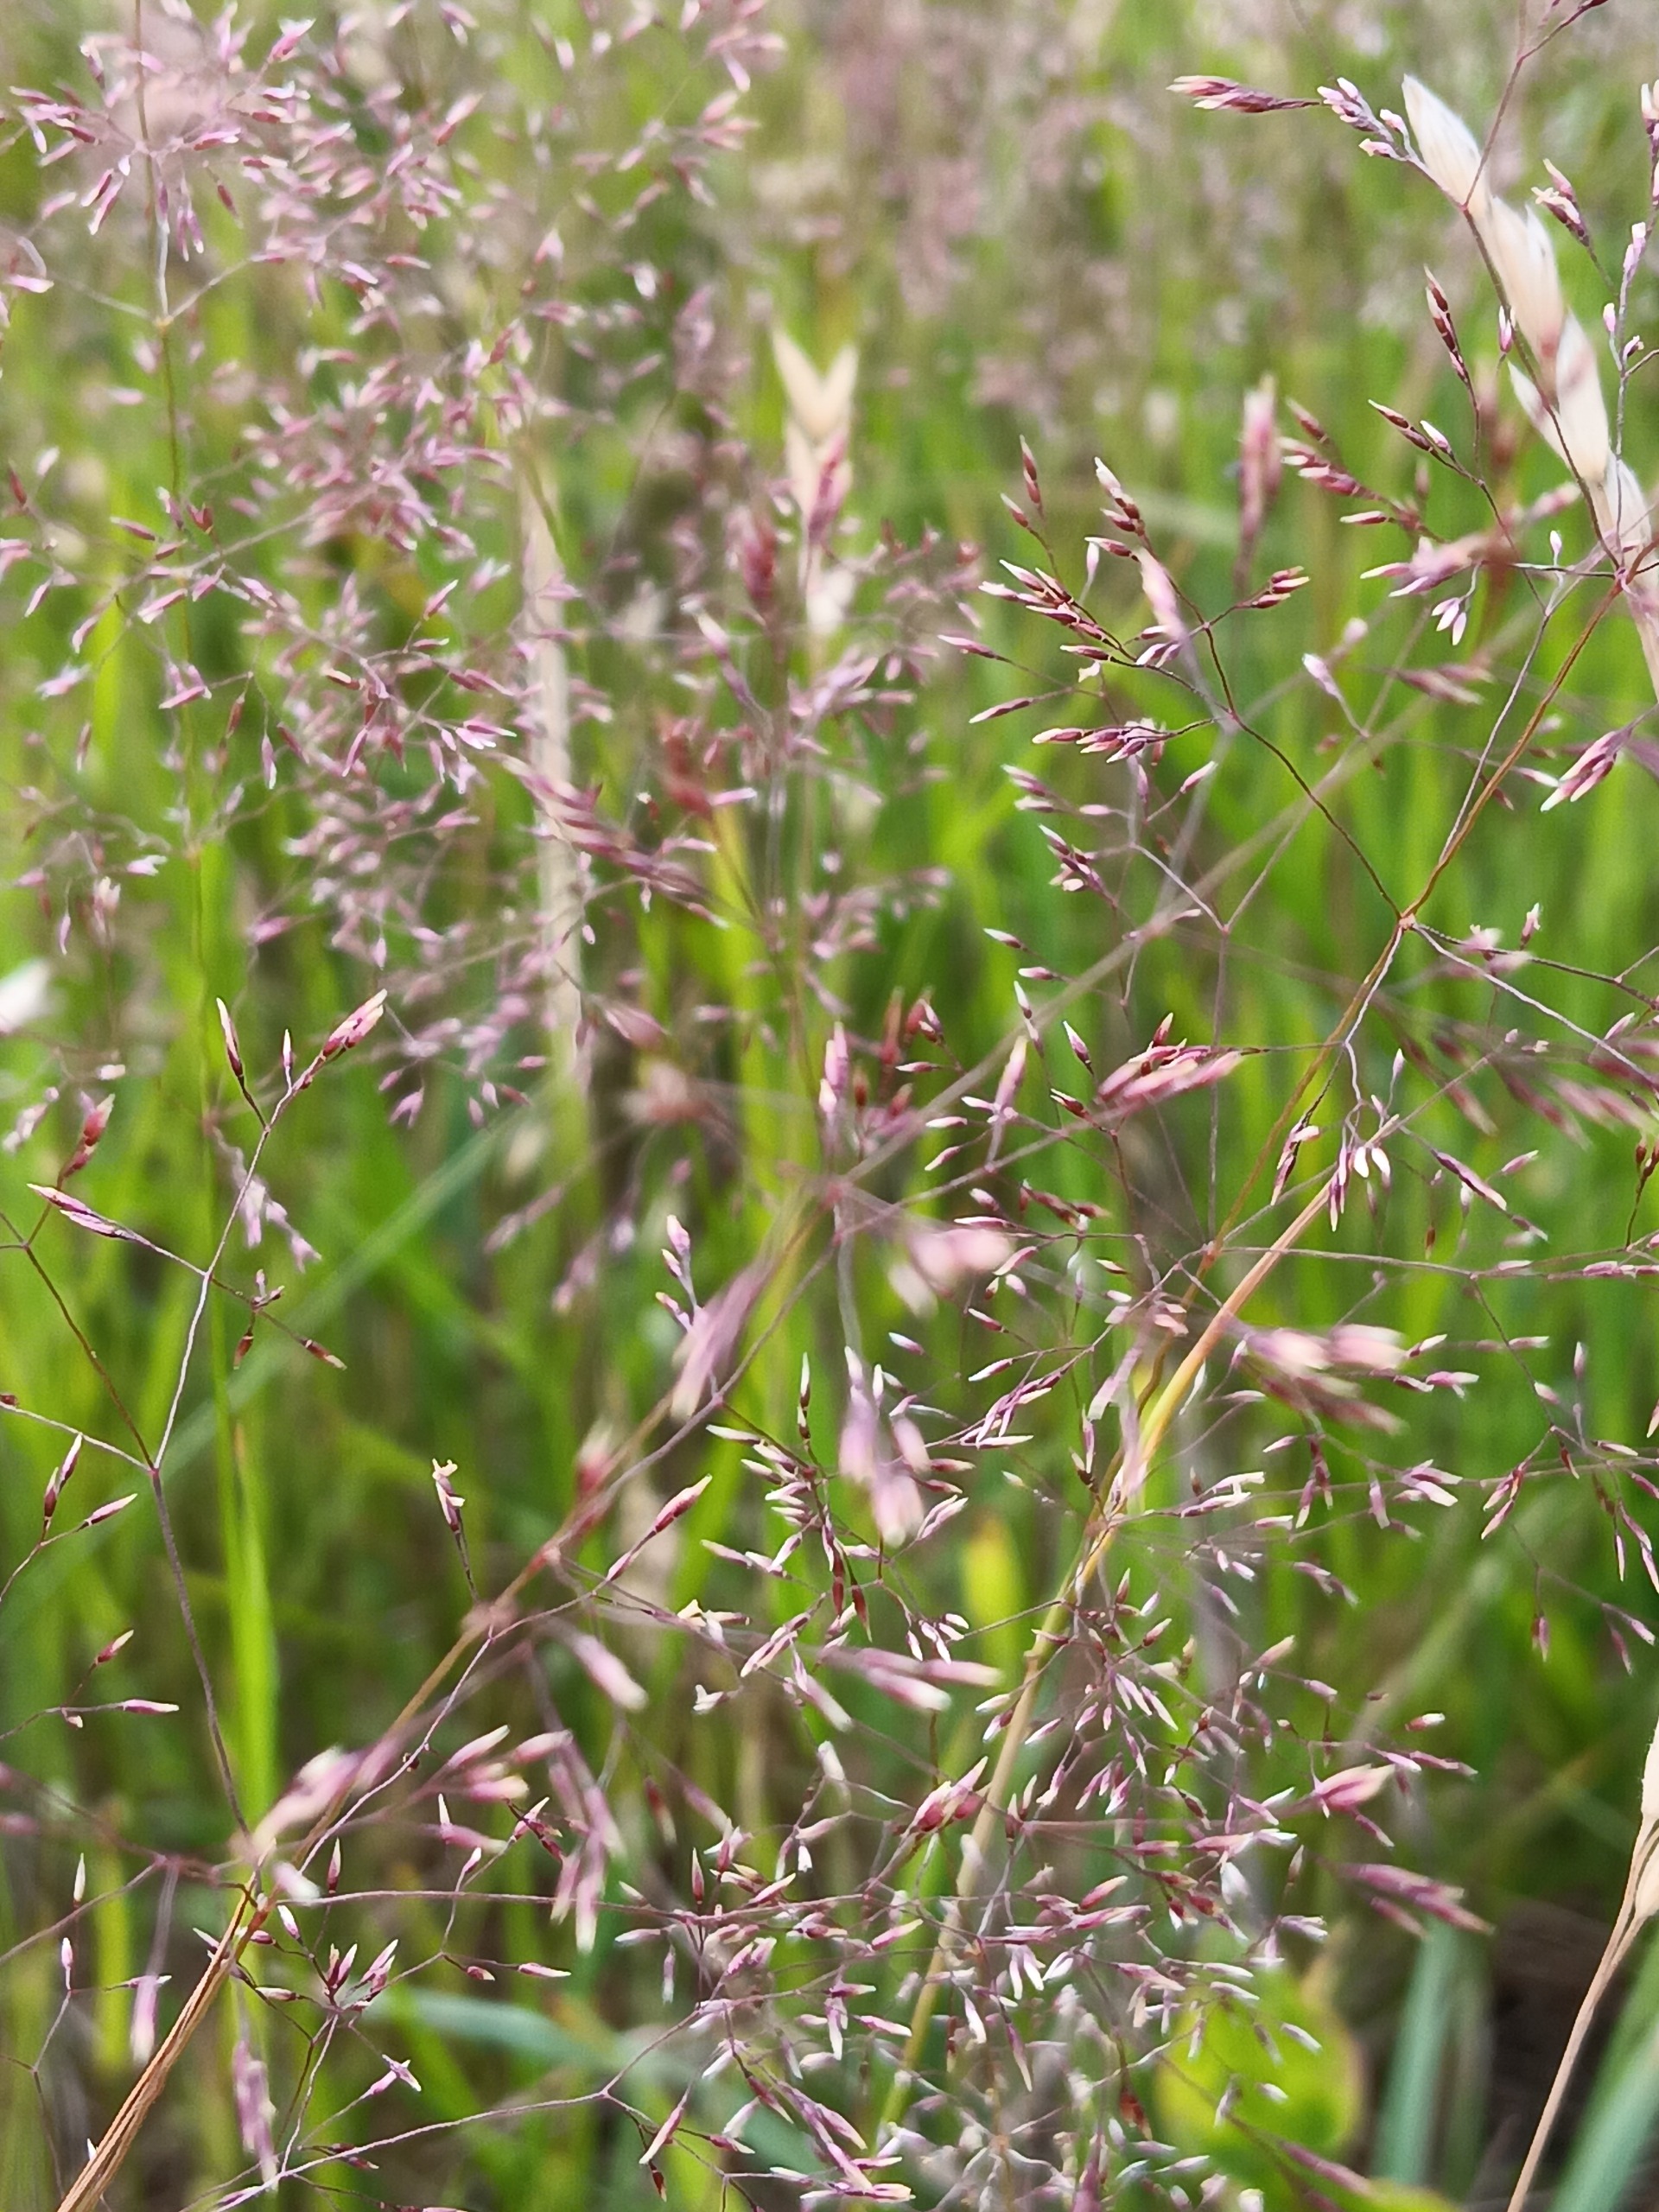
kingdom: Plantae
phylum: Tracheophyta
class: Liliopsida
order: Poales
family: Poaceae
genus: Agrostis
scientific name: Agrostis capillaris
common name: Almindelig hvene
